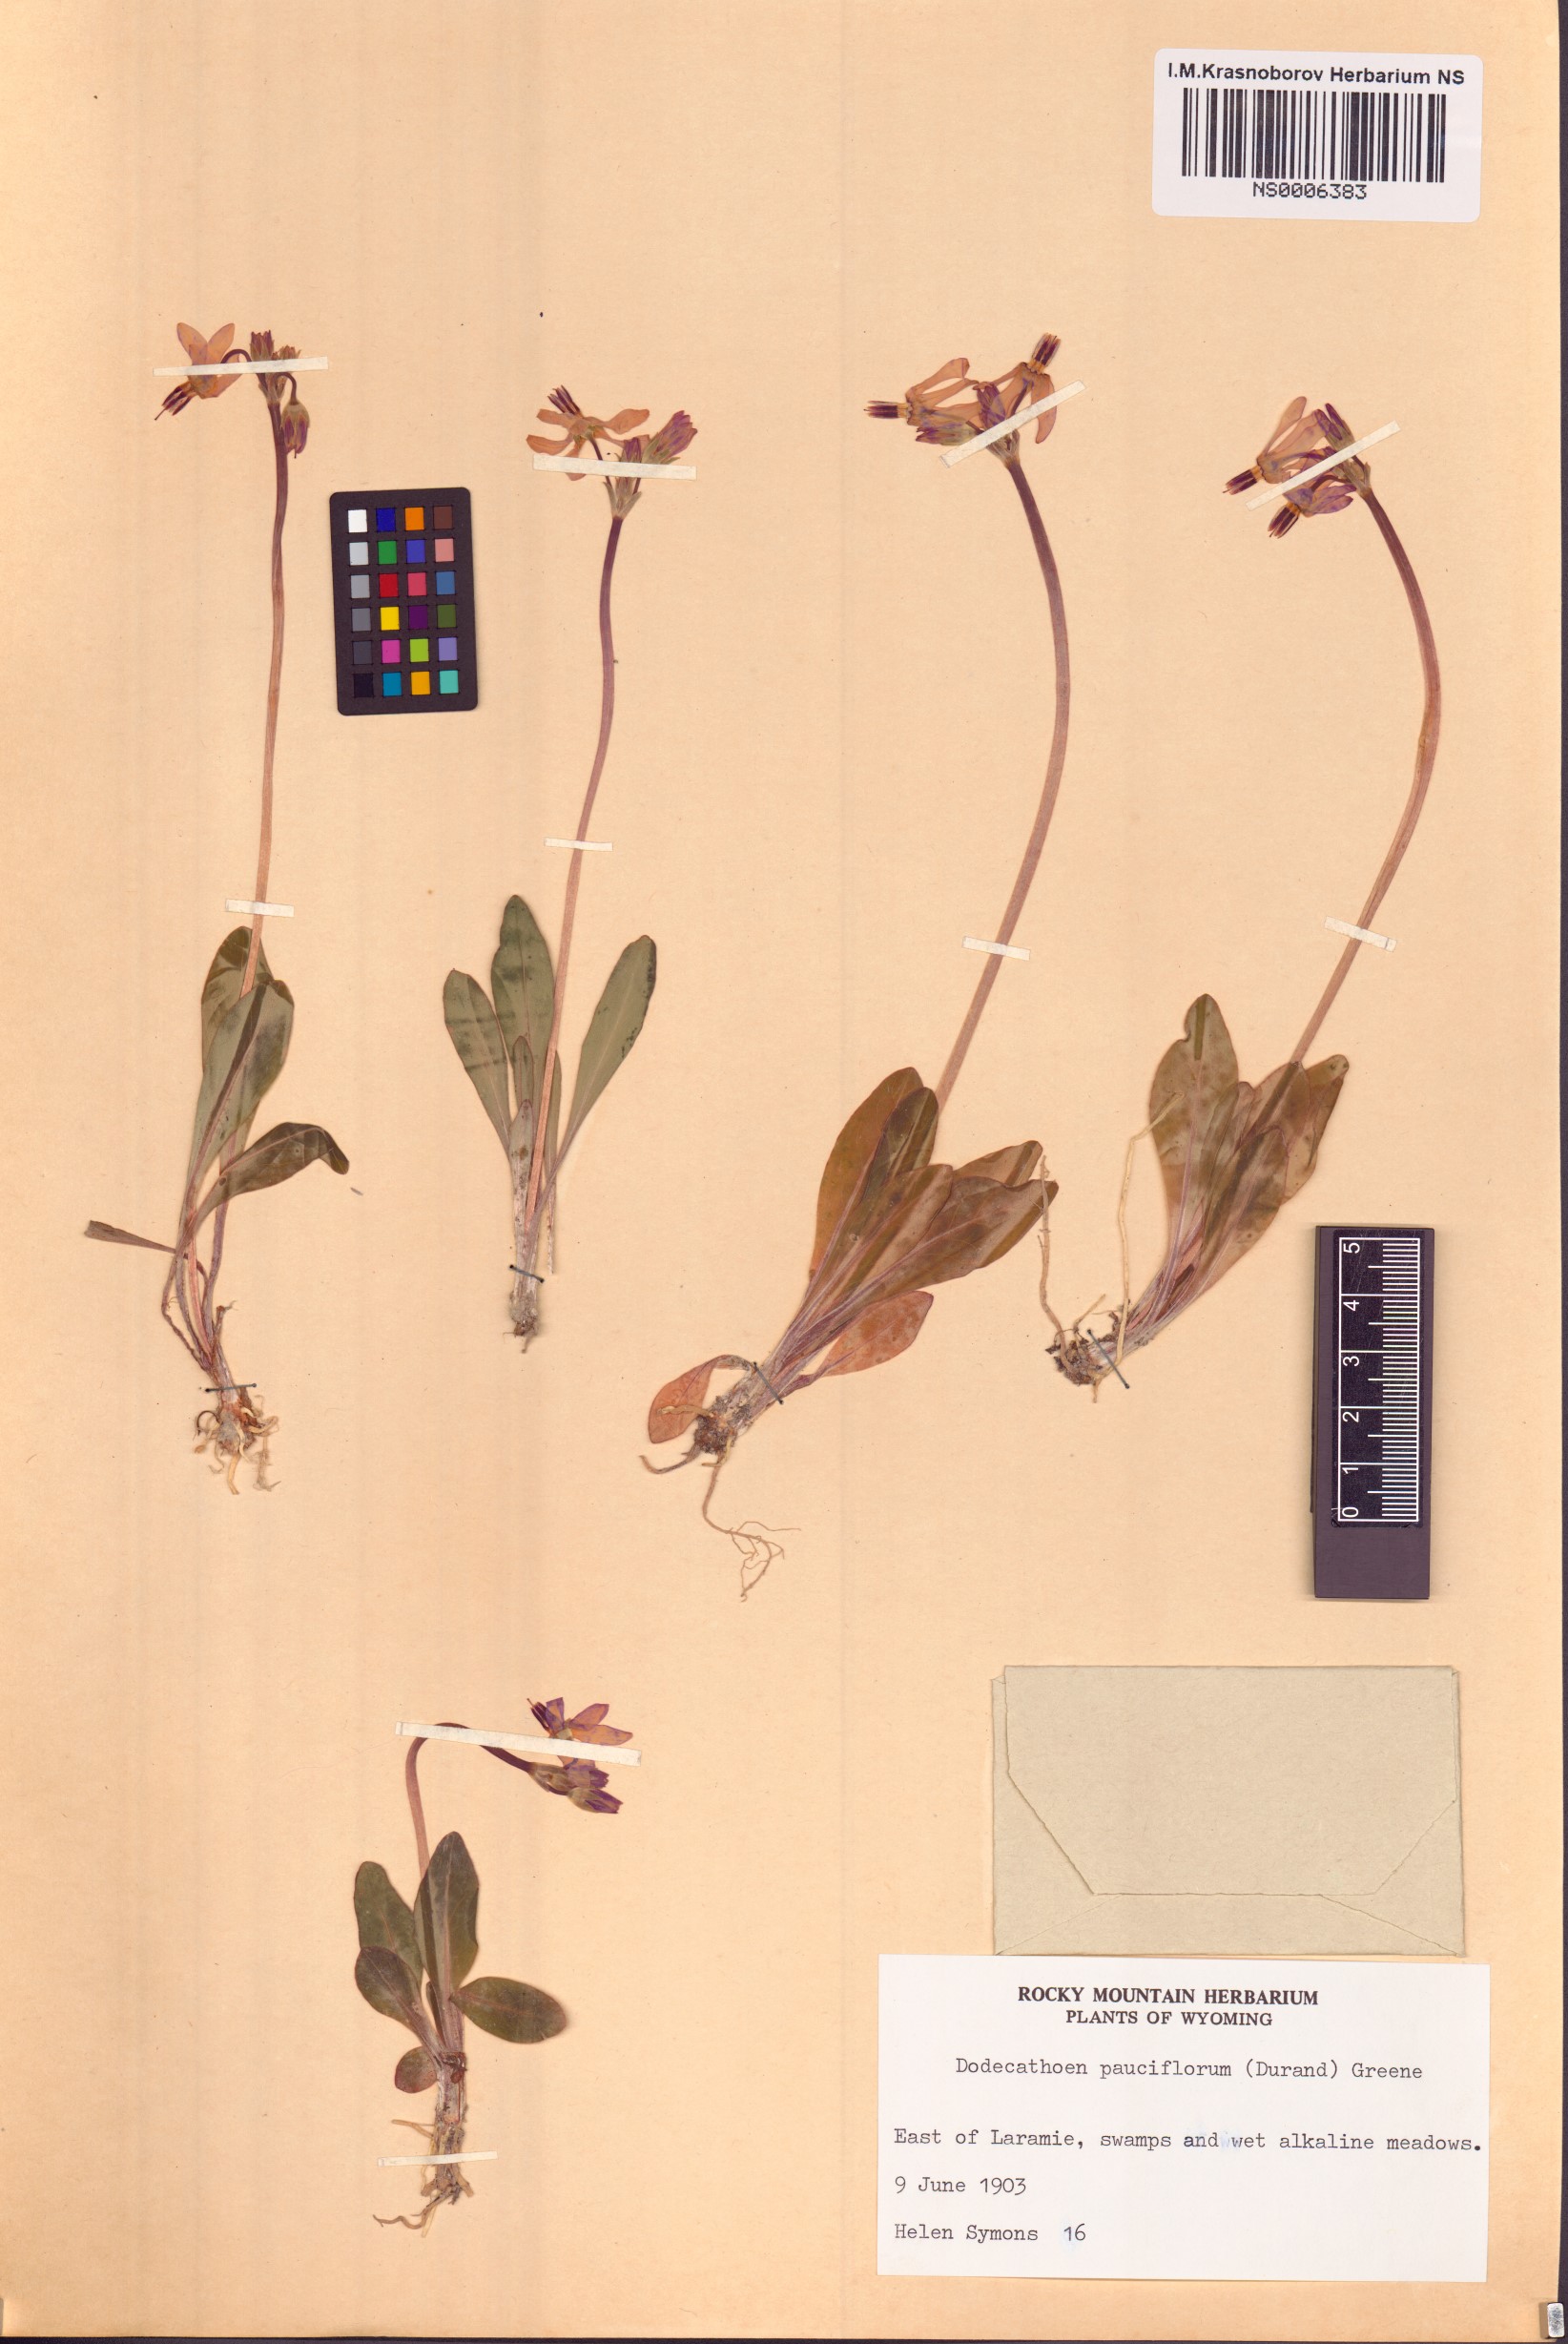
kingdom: Plantae
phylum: Tracheophyta
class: Magnoliopsida
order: Ericales
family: Primulaceae
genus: Dodecatheon
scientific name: Dodecatheon pulchellum
